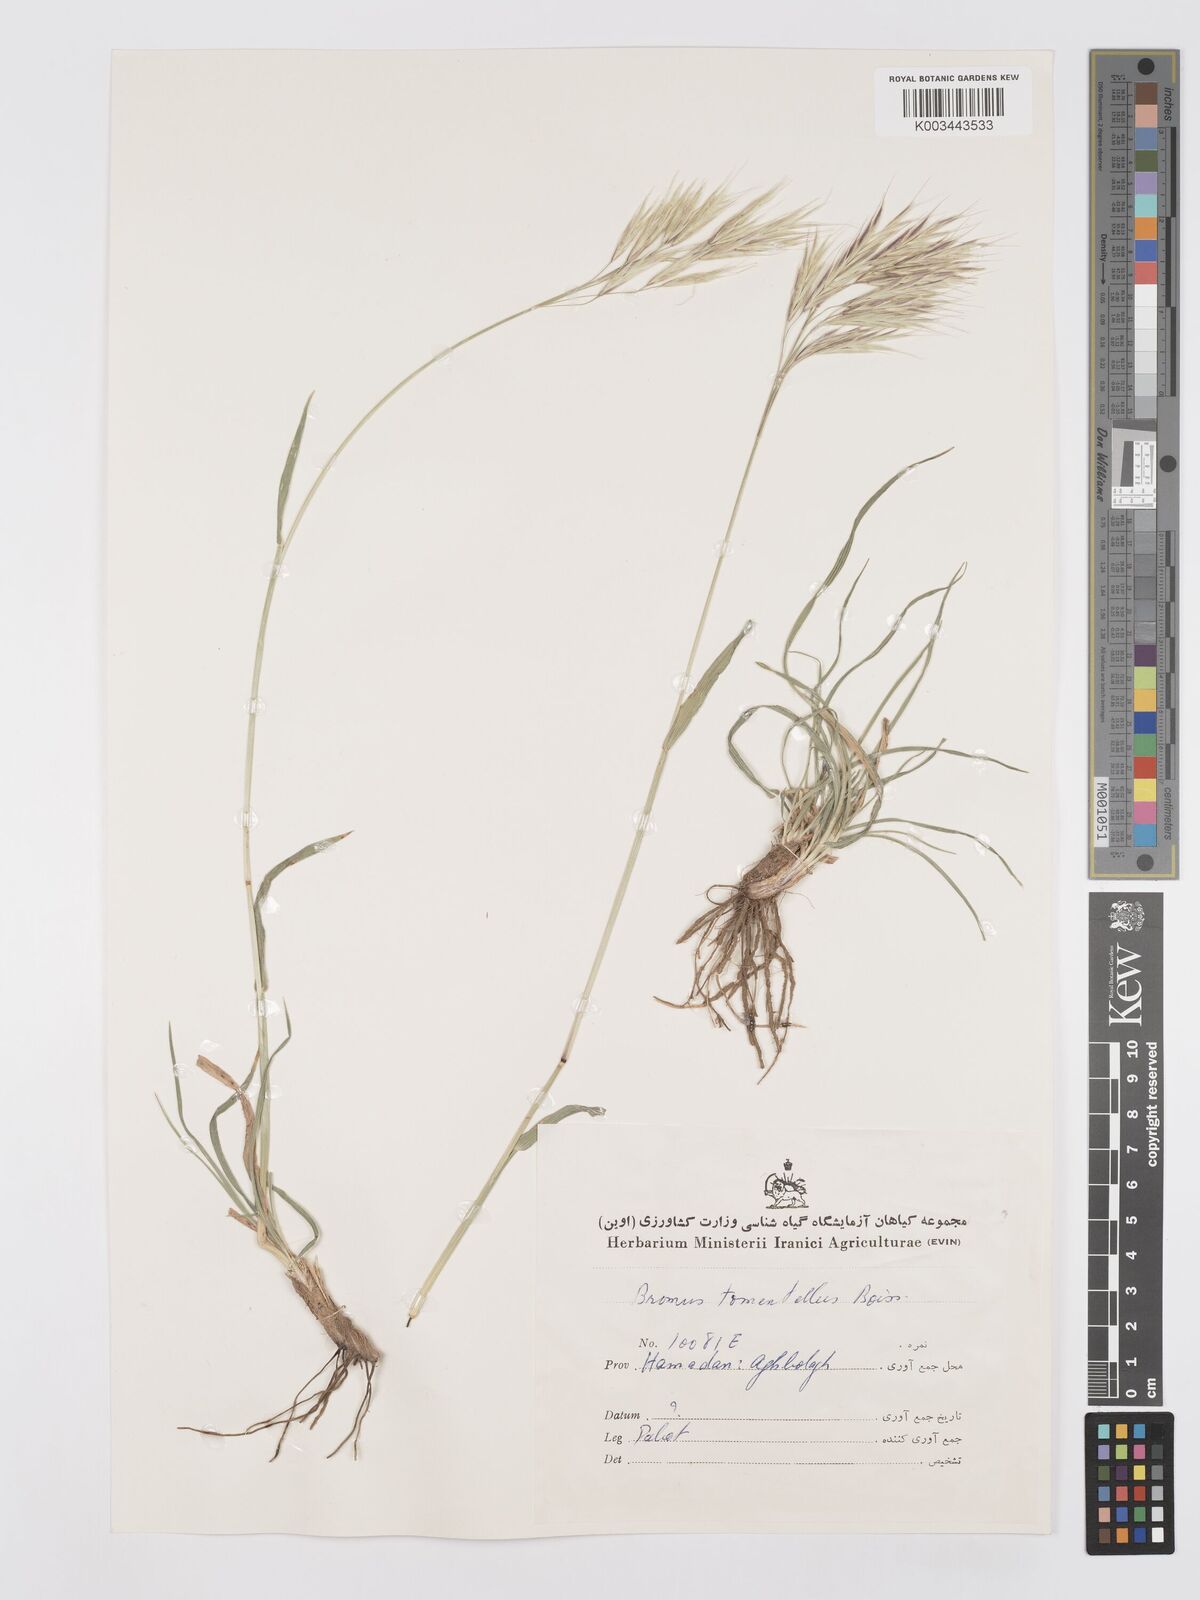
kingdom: Plantae
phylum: Tracheophyta
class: Liliopsida
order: Poales
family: Poaceae
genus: Bromus
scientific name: Bromus tomentellus
